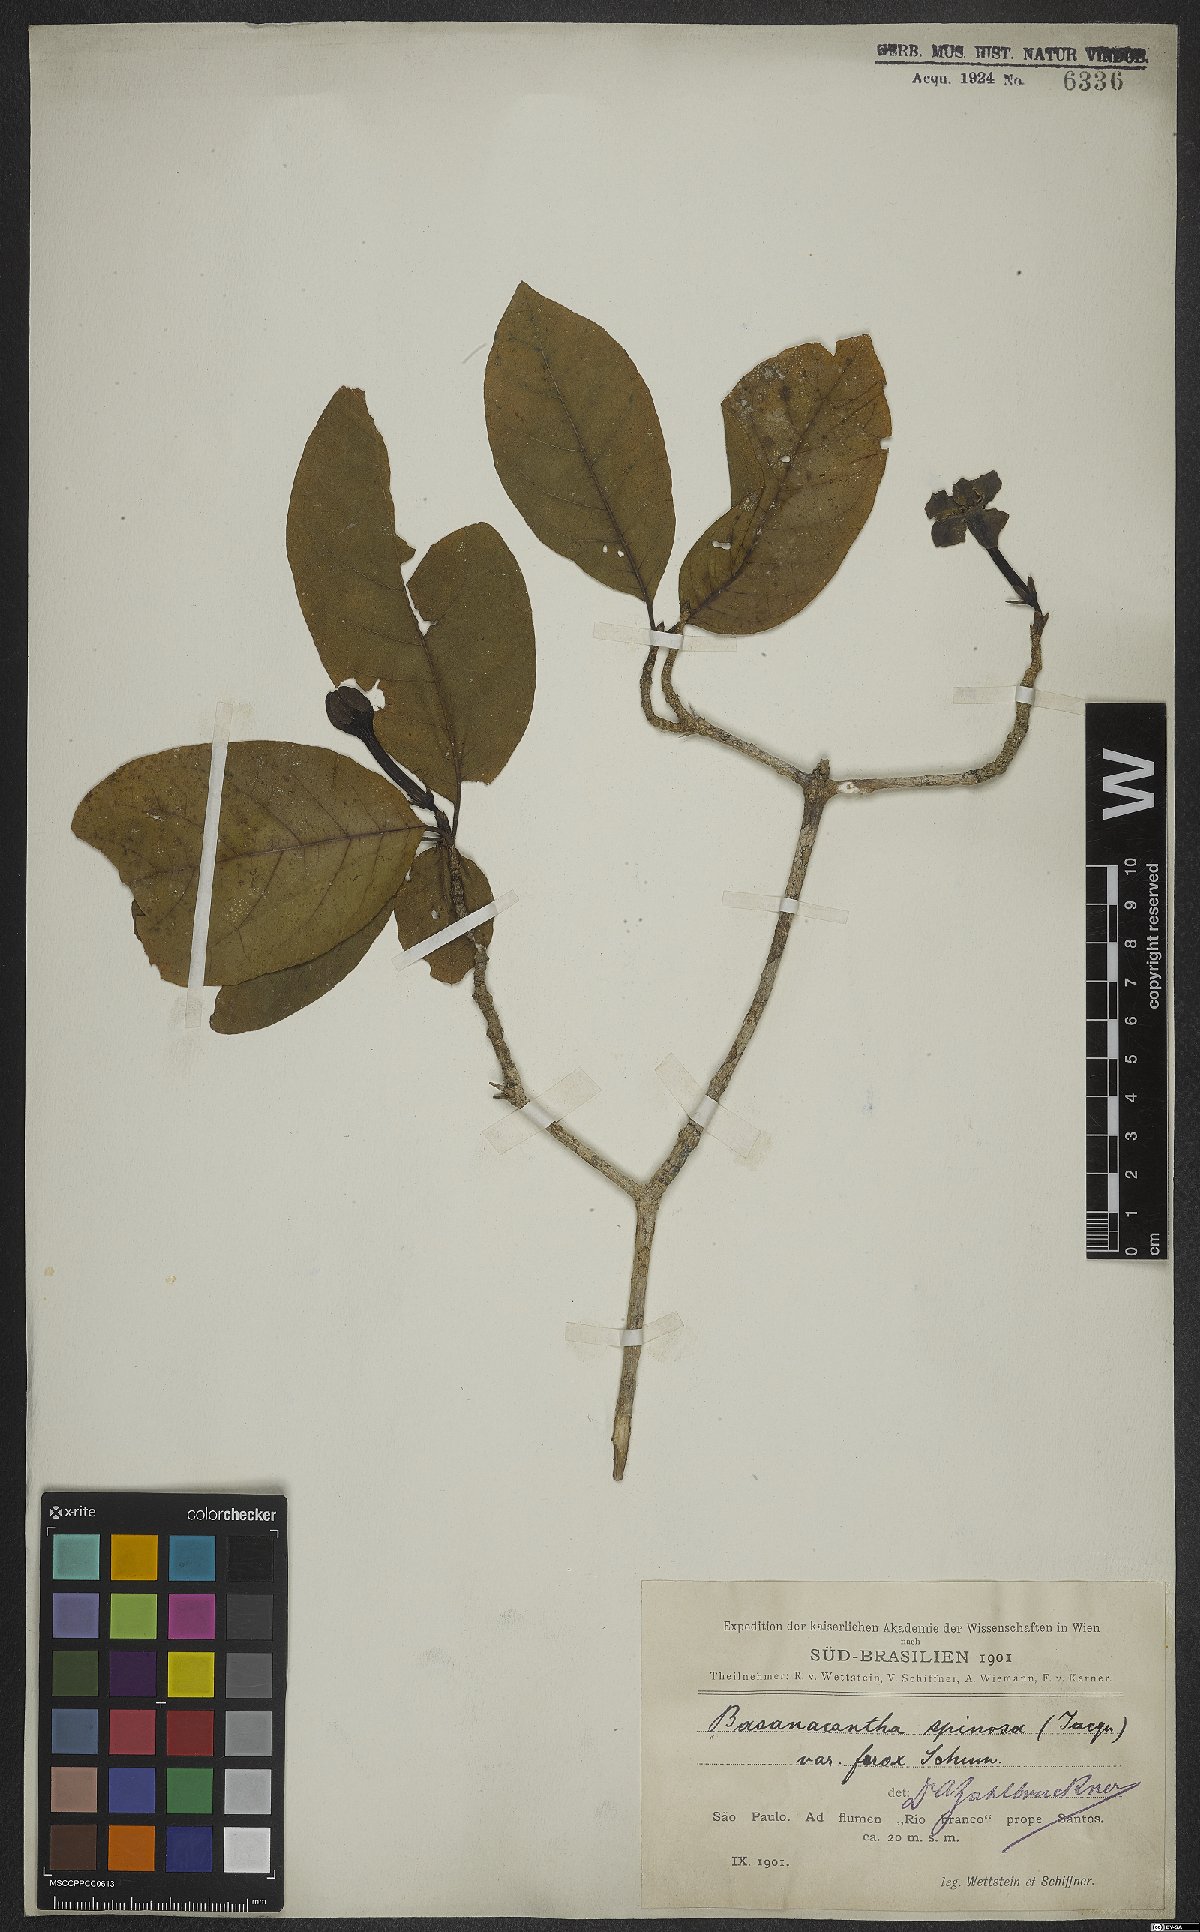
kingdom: Plantae
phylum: Tracheophyta
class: Magnoliopsida
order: Gentianales
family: Rubiaceae
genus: Randia
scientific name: Randia armata
